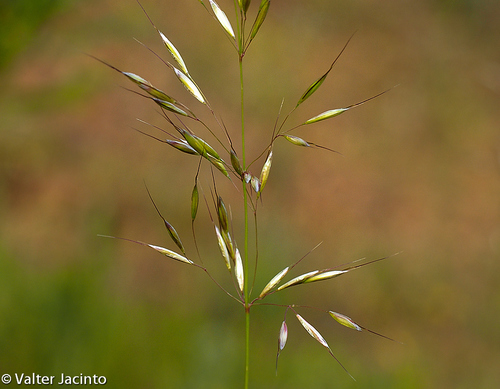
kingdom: Plantae
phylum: Tracheophyta
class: Liliopsida
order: Poales
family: Poaceae
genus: Arrhenatherum
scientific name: Arrhenatherum album
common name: Tall oat grass
